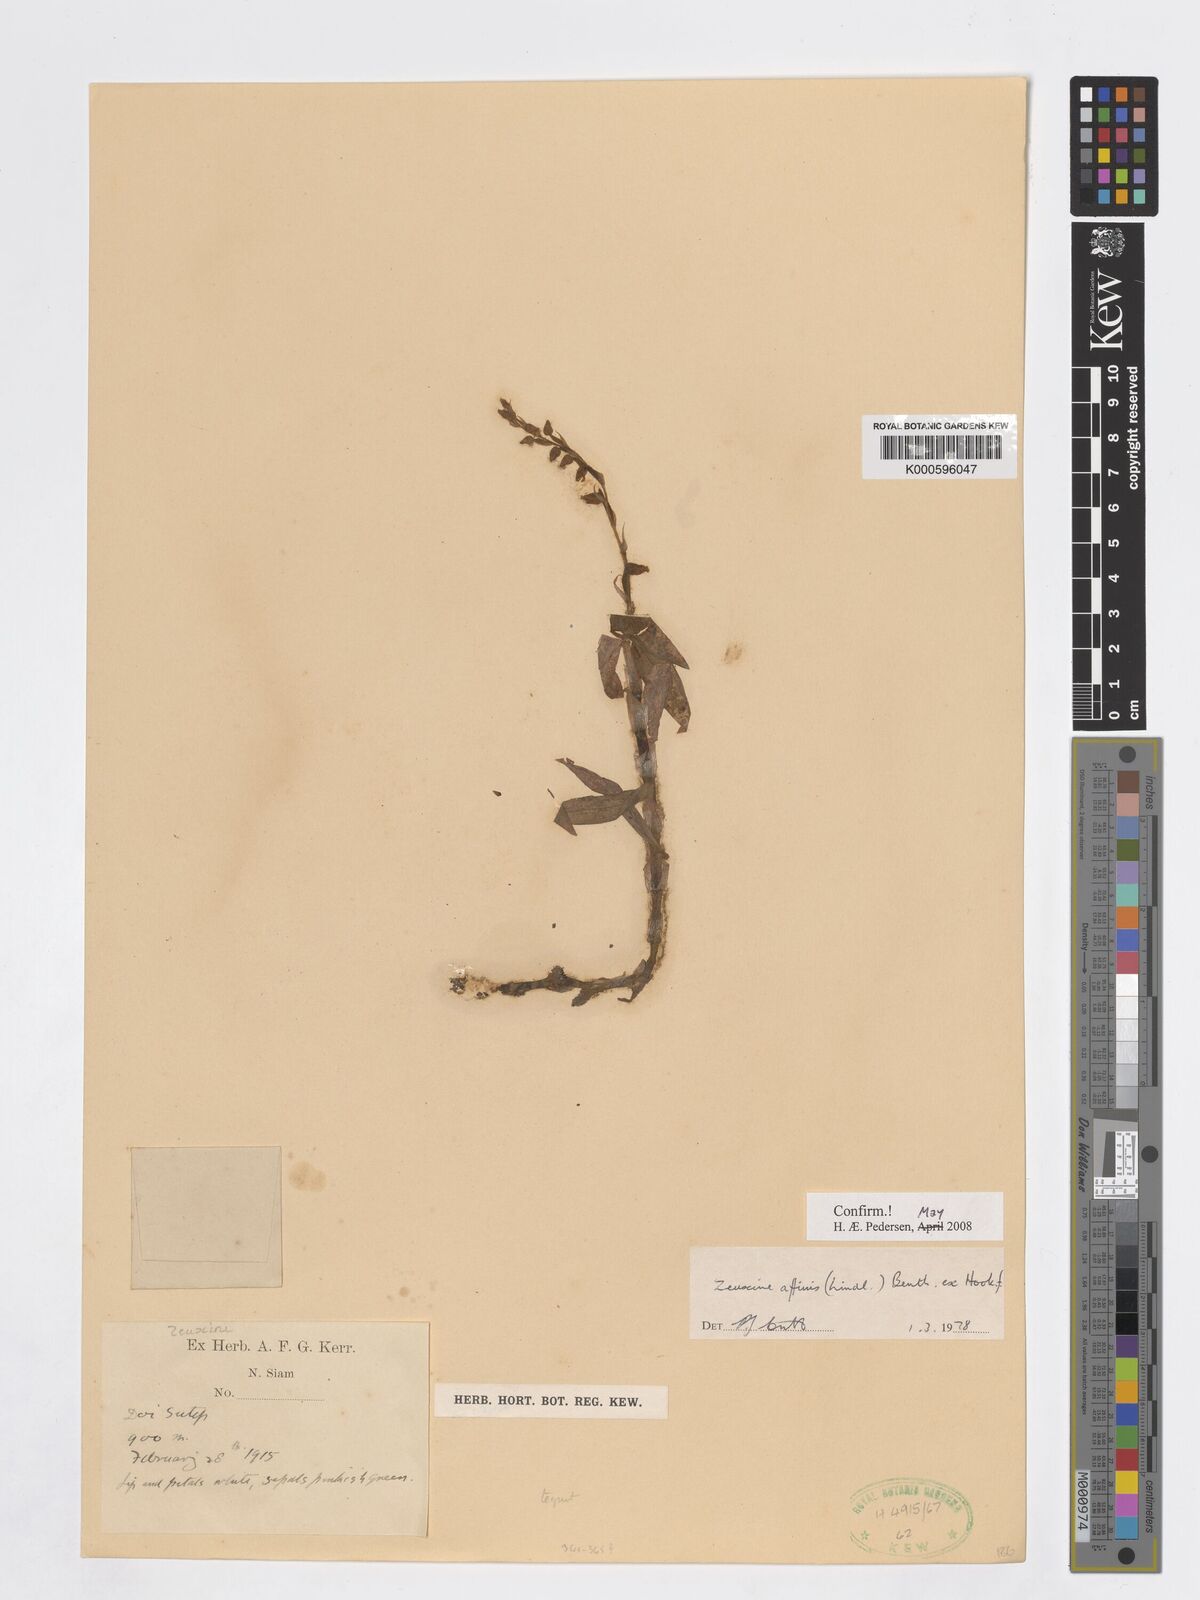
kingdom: Plantae
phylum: Tracheophyta
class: Liliopsida
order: Asparagales
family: Orchidaceae
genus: Zeuxine
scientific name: Zeuxine affinis
